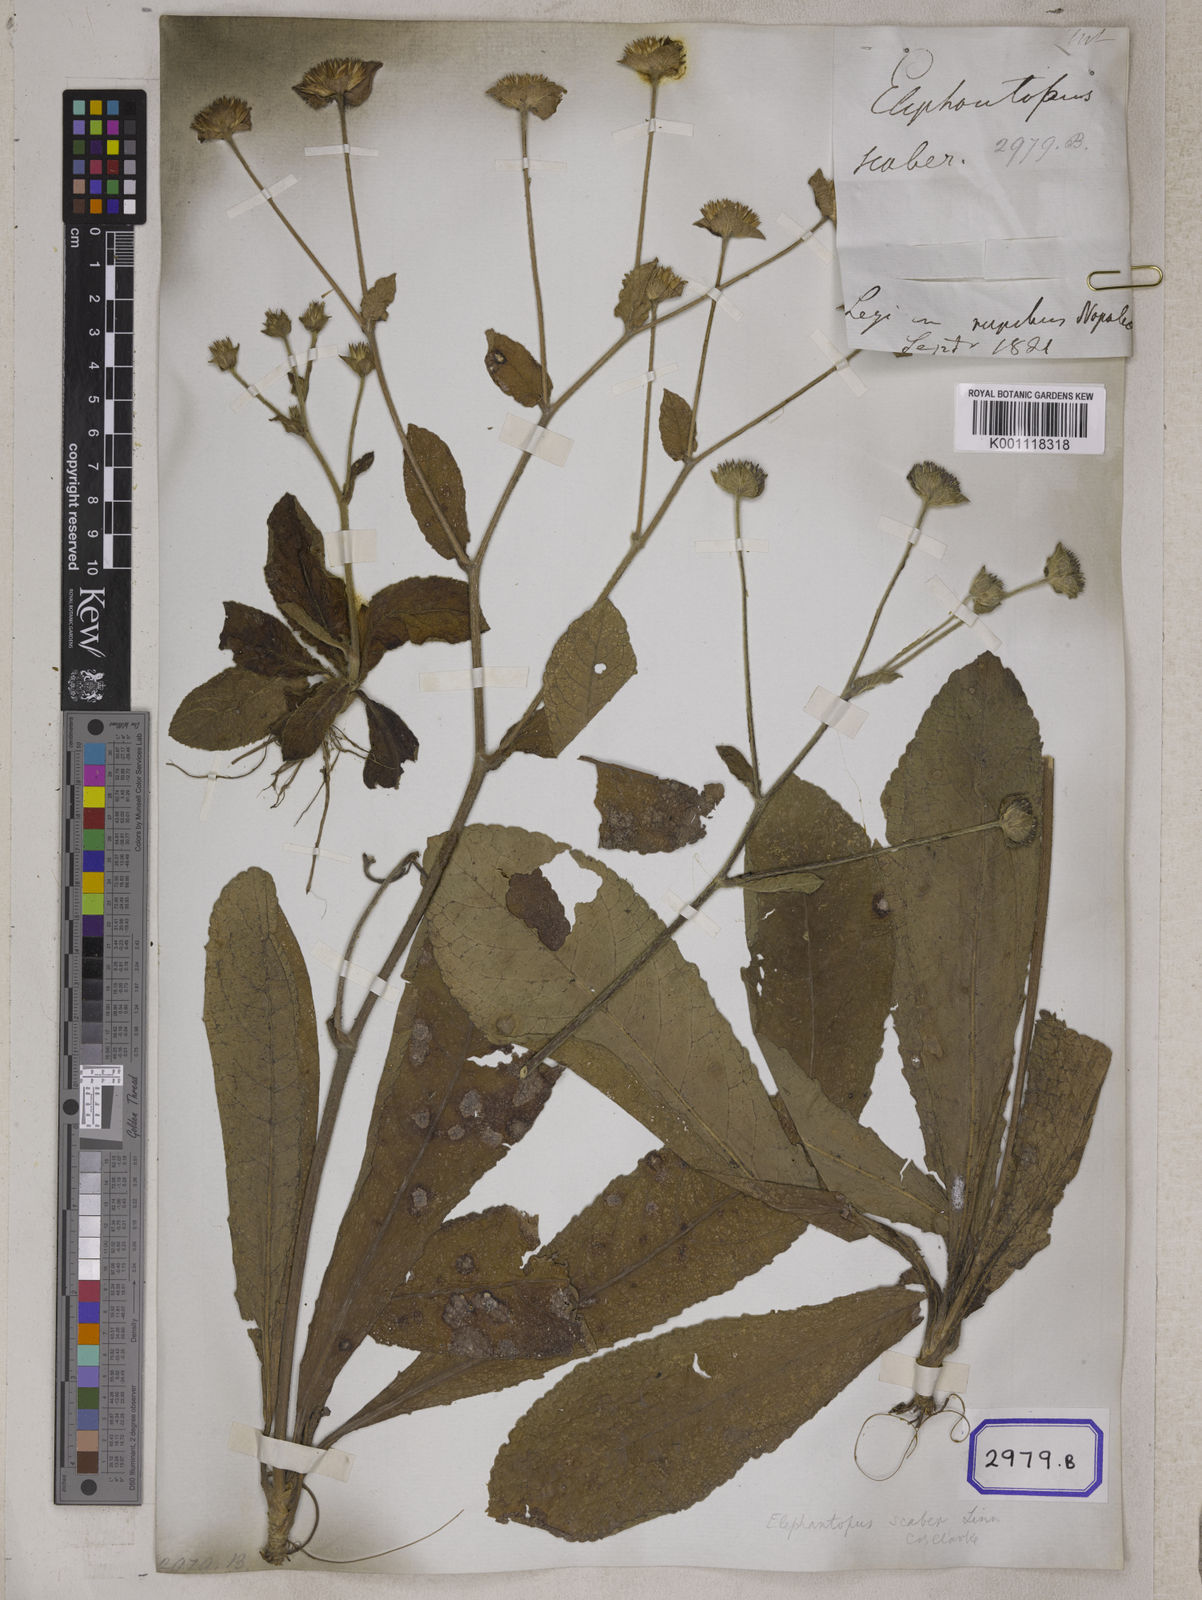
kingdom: Plantae
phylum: Tracheophyta
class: Magnoliopsida
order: Asterales
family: Asteraceae
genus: Elephantopus
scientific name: Elephantopus scaber
